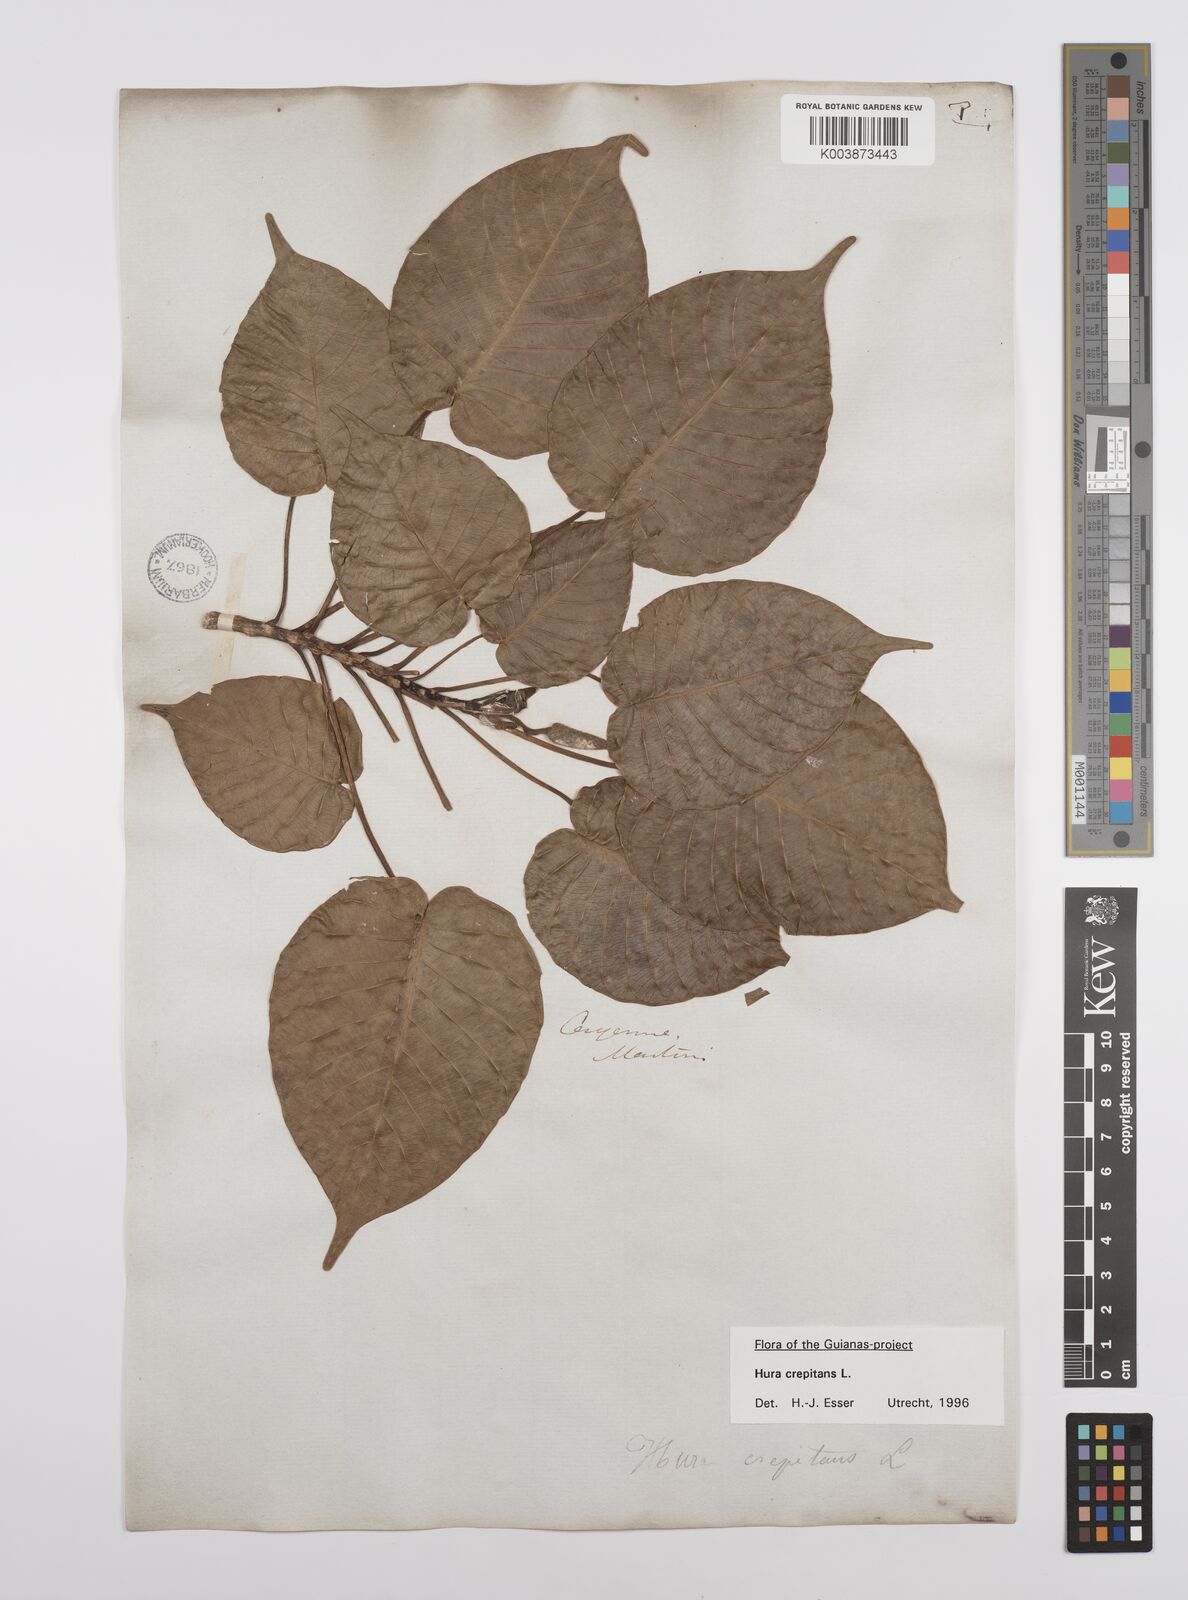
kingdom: Plantae
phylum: Tracheophyta
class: Magnoliopsida
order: Malpighiales
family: Euphorbiaceae
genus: Hura
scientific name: Hura crepitans
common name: Sandboxtree
